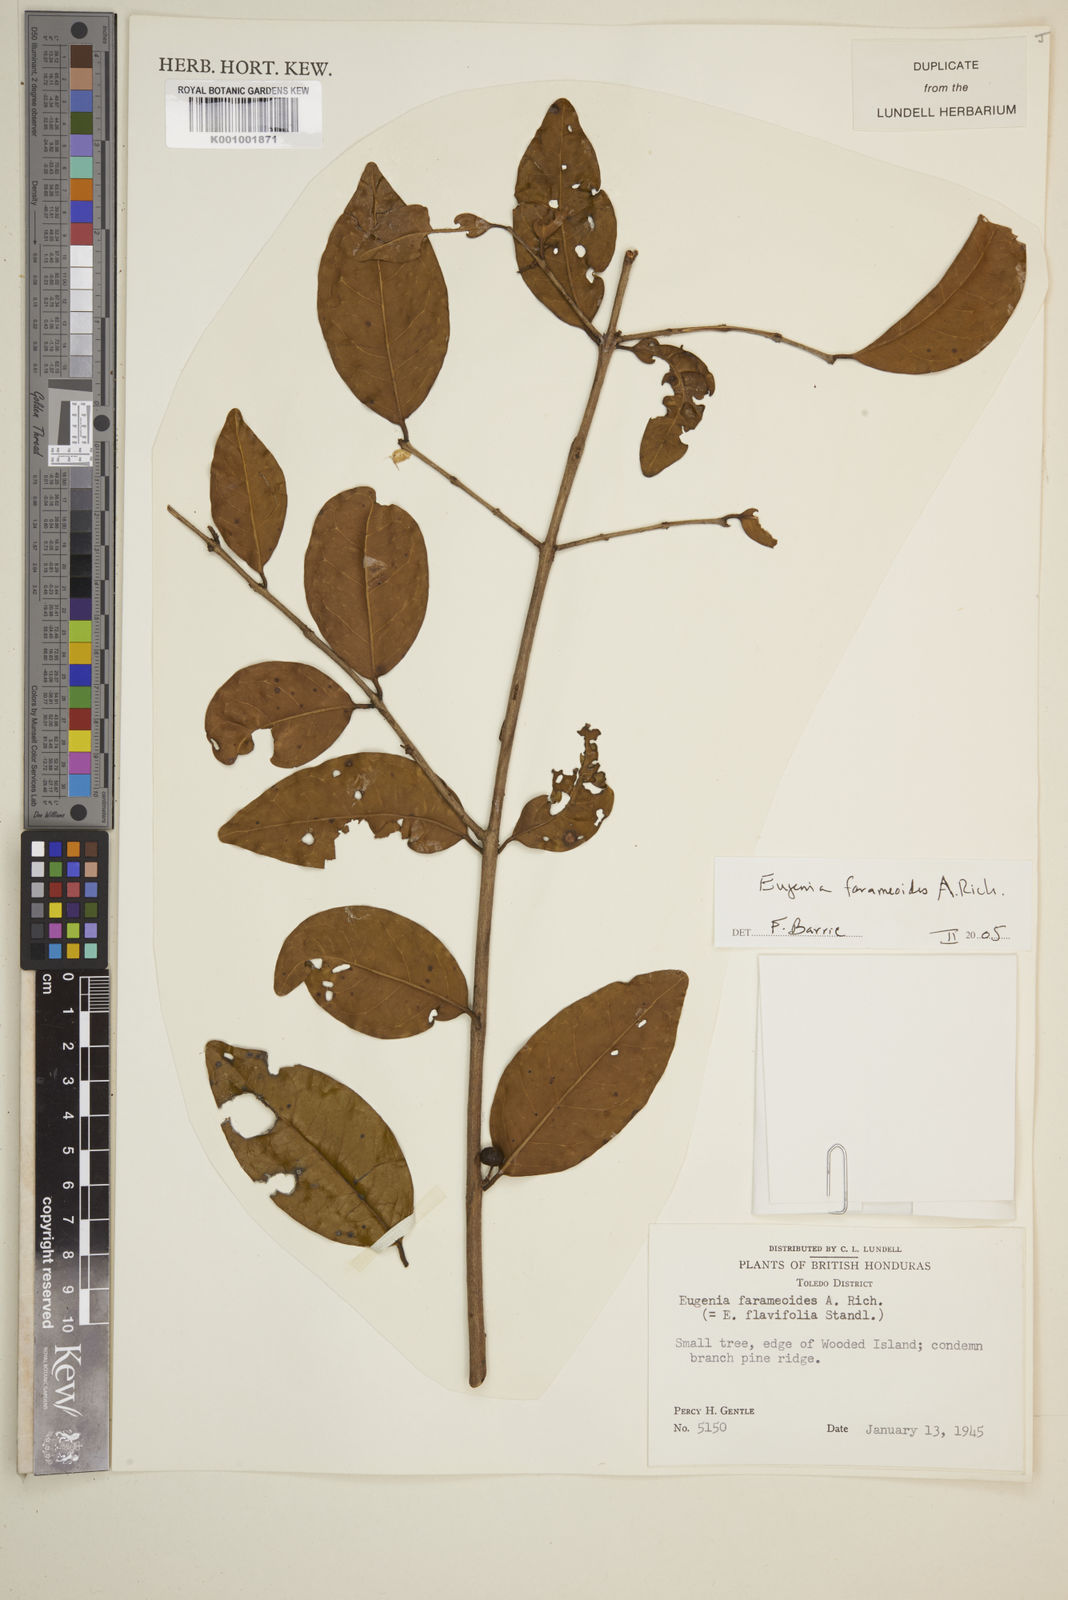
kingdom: Plantae
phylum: Tracheophyta
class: Magnoliopsida
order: Myrtales
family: Myrtaceae
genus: Eugenia
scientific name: Eugenia farameoides
